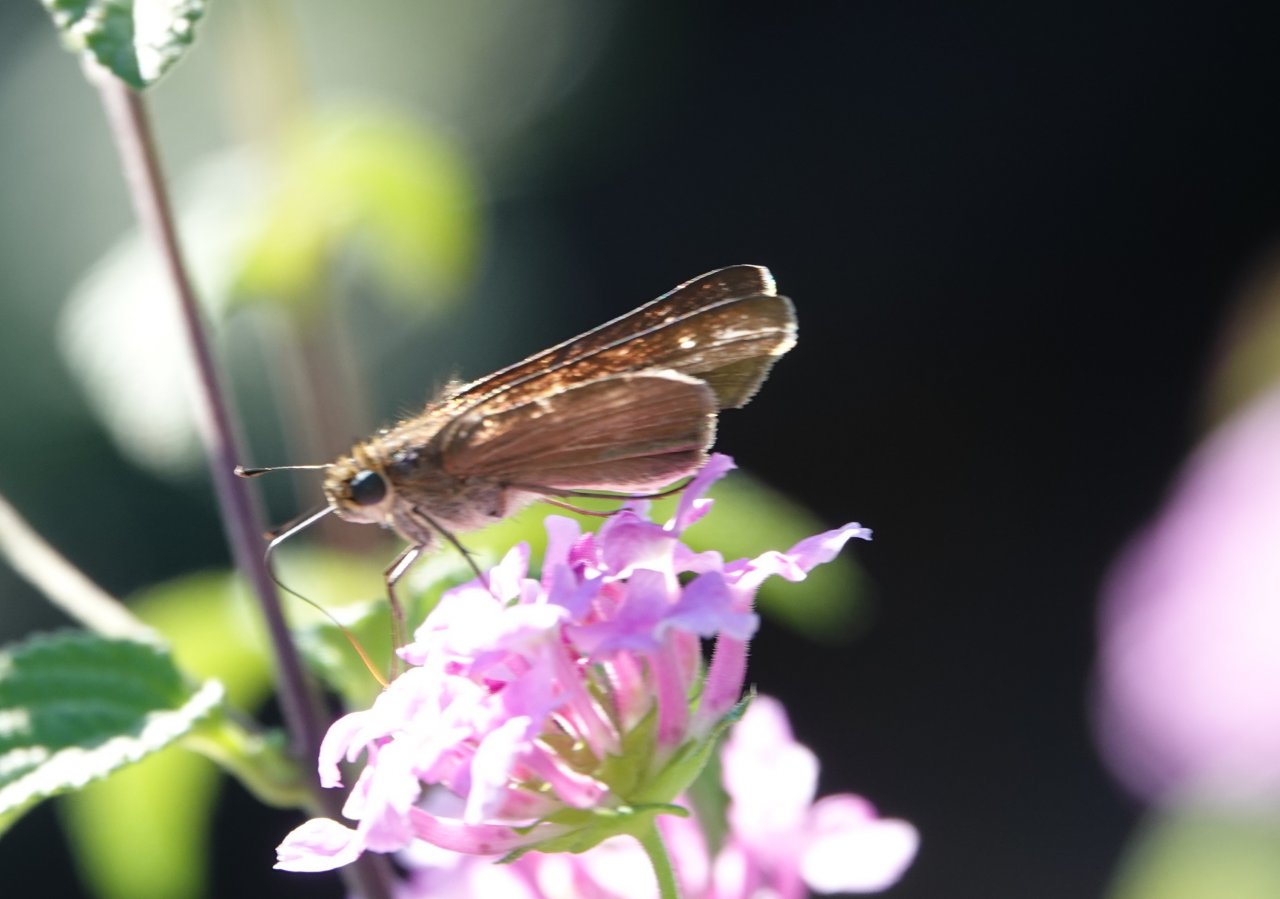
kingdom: Animalia
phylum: Arthropoda
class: Insecta
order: Lepidoptera
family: Hesperiidae
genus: Panoquina
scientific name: Panoquina ocola
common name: Ocola Skipper
